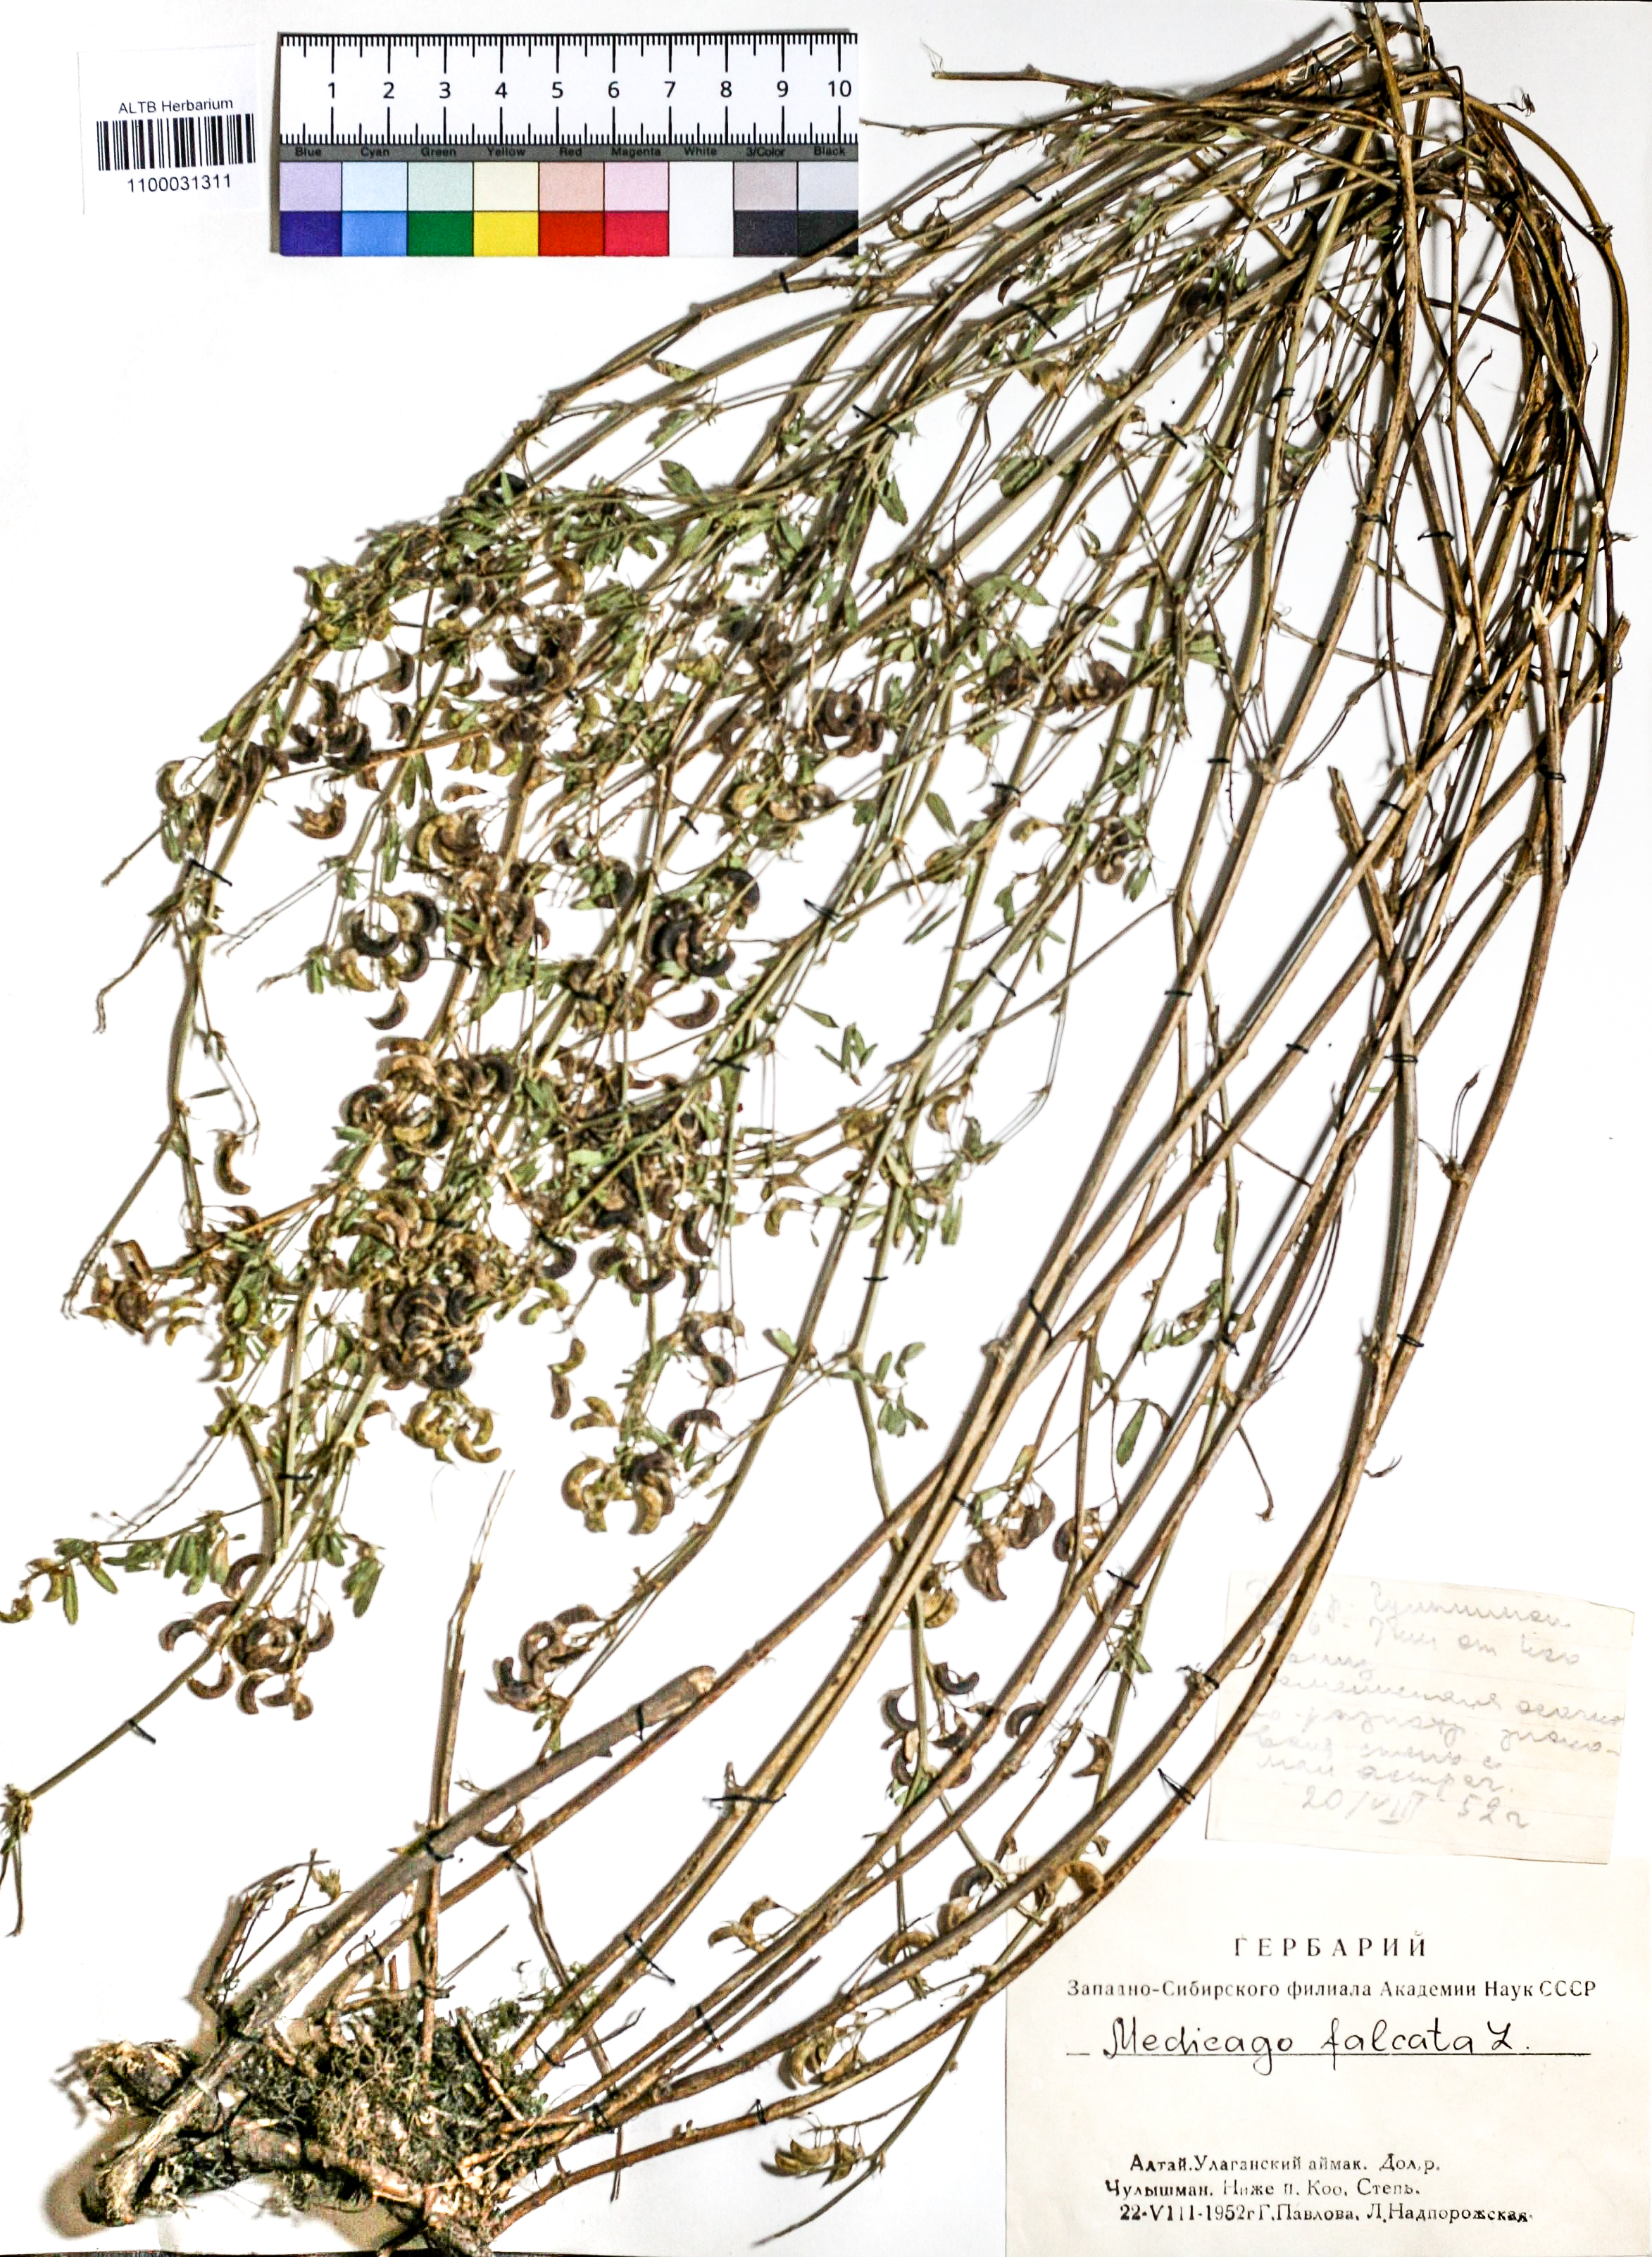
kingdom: Plantae
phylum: Tracheophyta
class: Magnoliopsida
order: Fabales
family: Fabaceae
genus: Medicago
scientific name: Medicago falcata
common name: Sickle medick
